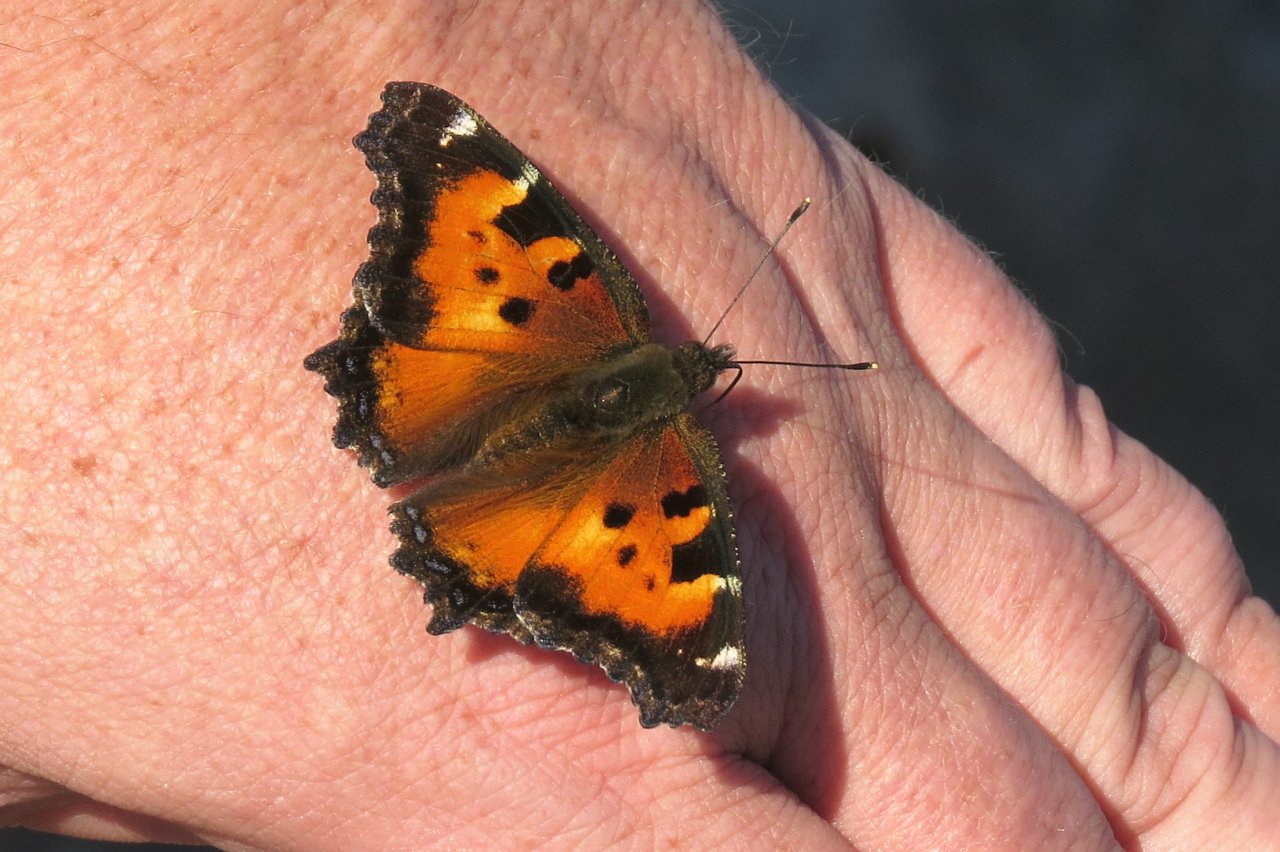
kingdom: Animalia
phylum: Arthropoda
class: Insecta
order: Lepidoptera
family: Nymphalidae
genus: Nymphalis
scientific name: Nymphalis californica
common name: California Tortoiseshell
